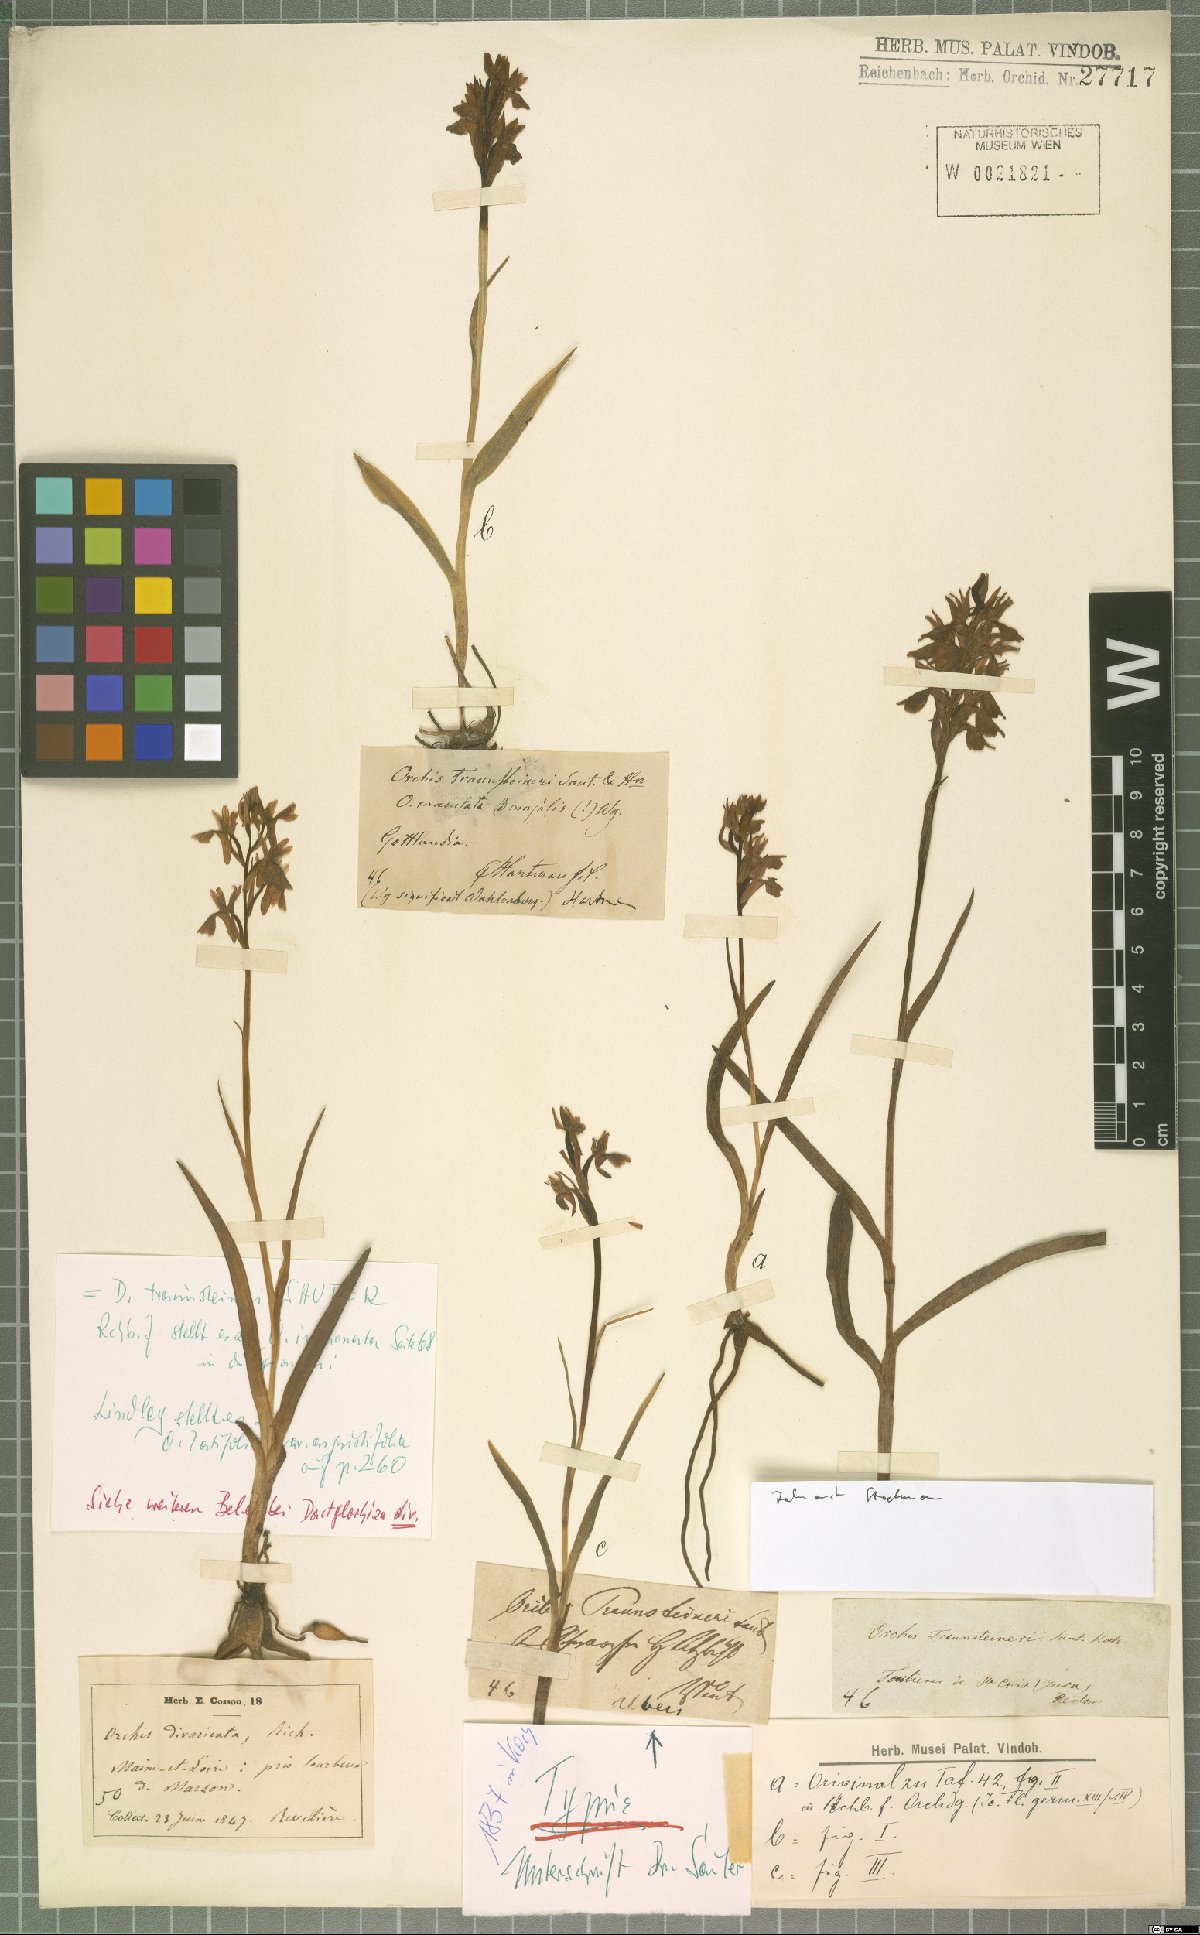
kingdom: Plantae
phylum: Tracheophyta
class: Liliopsida
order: Asparagales
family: Orchidaceae
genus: Dactylorhiza
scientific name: Dactylorhiza majalis
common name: Marsh orchid
